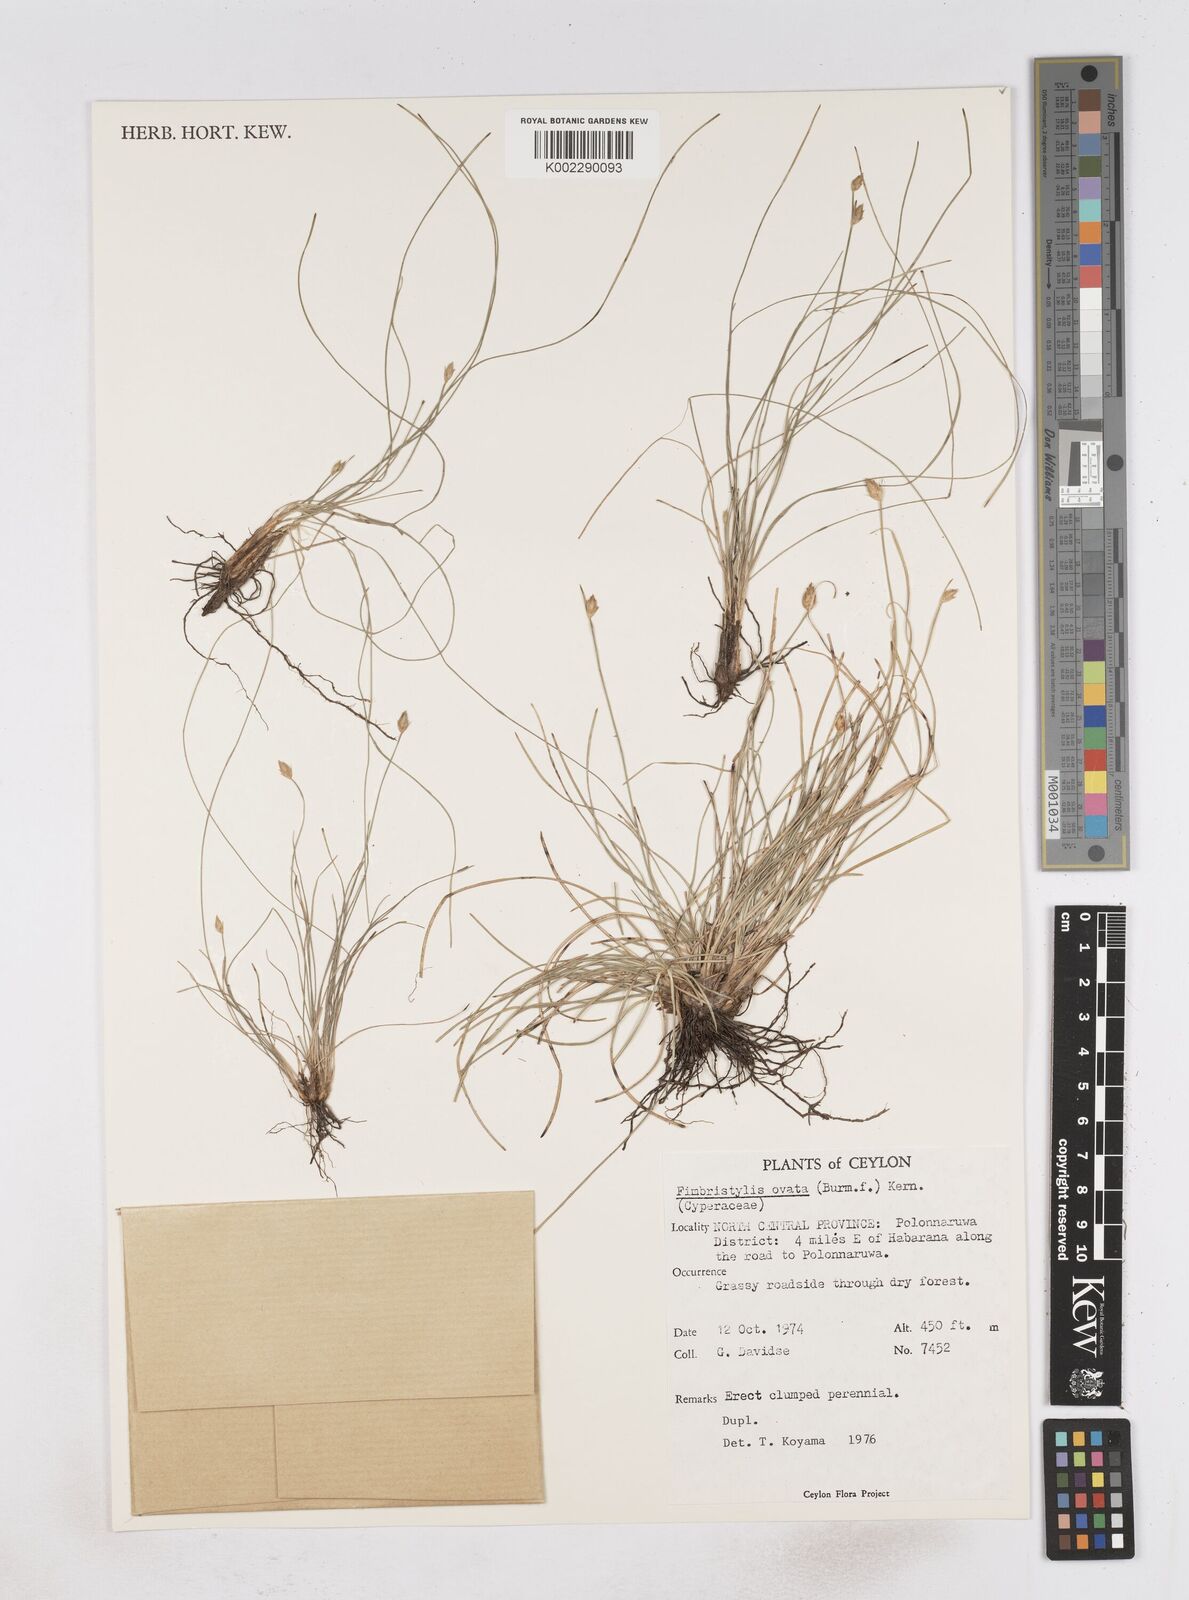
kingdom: Plantae
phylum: Tracheophyta
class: Liliopsida
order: Poales
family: Cyperaceae
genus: Abildgaardia
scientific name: Abildgaardia ovata
